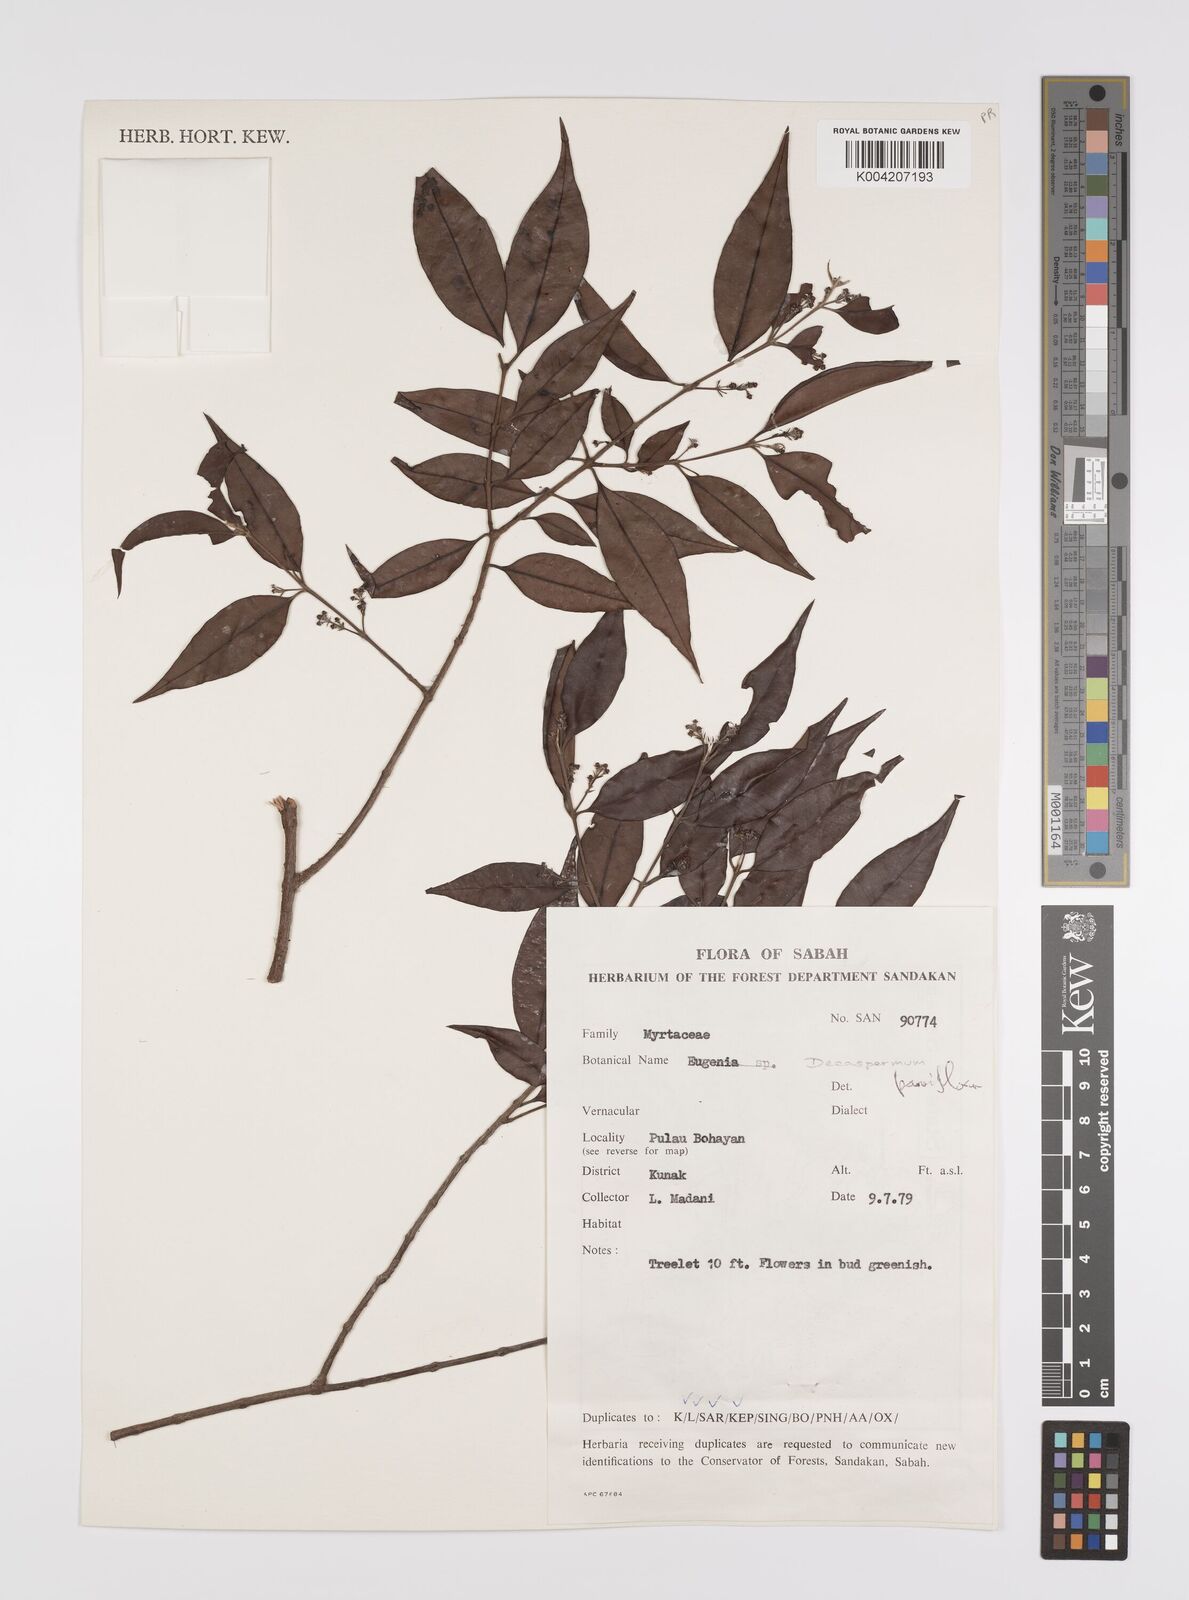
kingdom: Plantae
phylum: Tracheophyta
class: Magnoliopsida
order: Myrtales
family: Myrtaceae
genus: Decaspermum
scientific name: Decaspermum parviflorum
